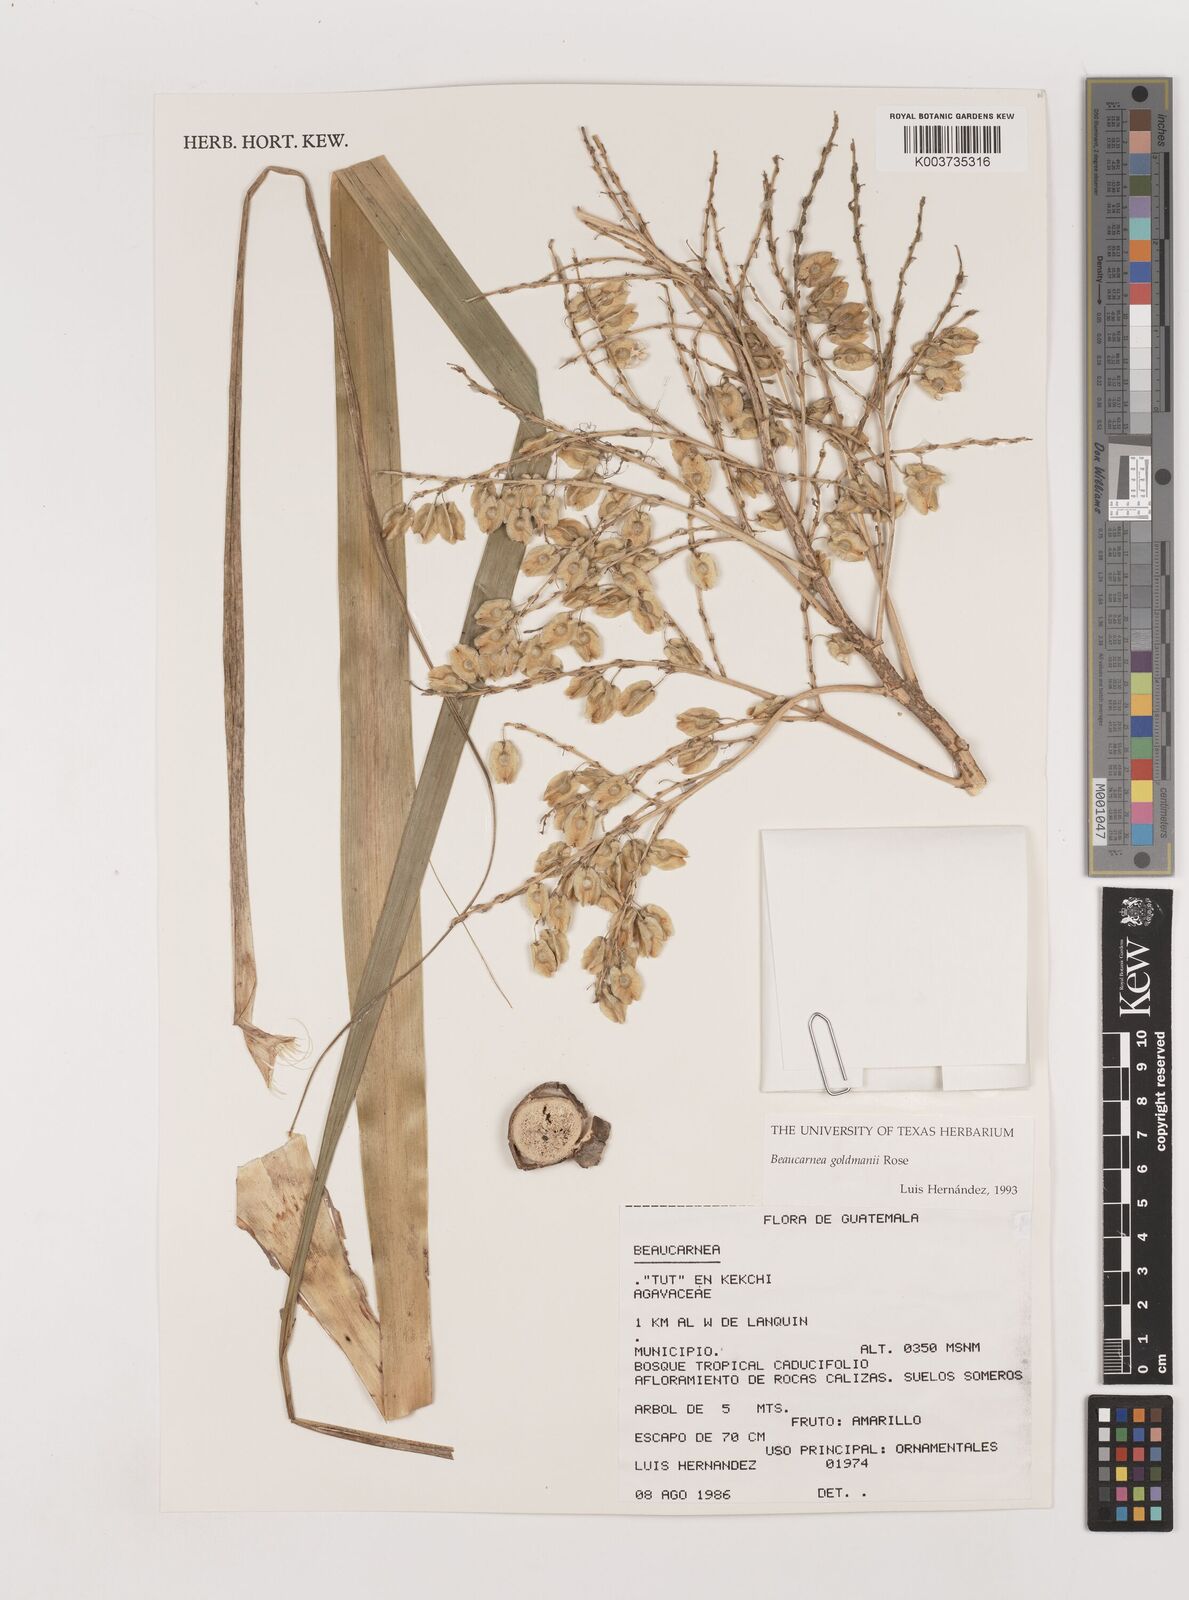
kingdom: Plantae
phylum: Tracheophyta
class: Liliopsida
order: Asparagales
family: Asparagaceae
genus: Beaucarnea
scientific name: Beaucarnea goldmanii
